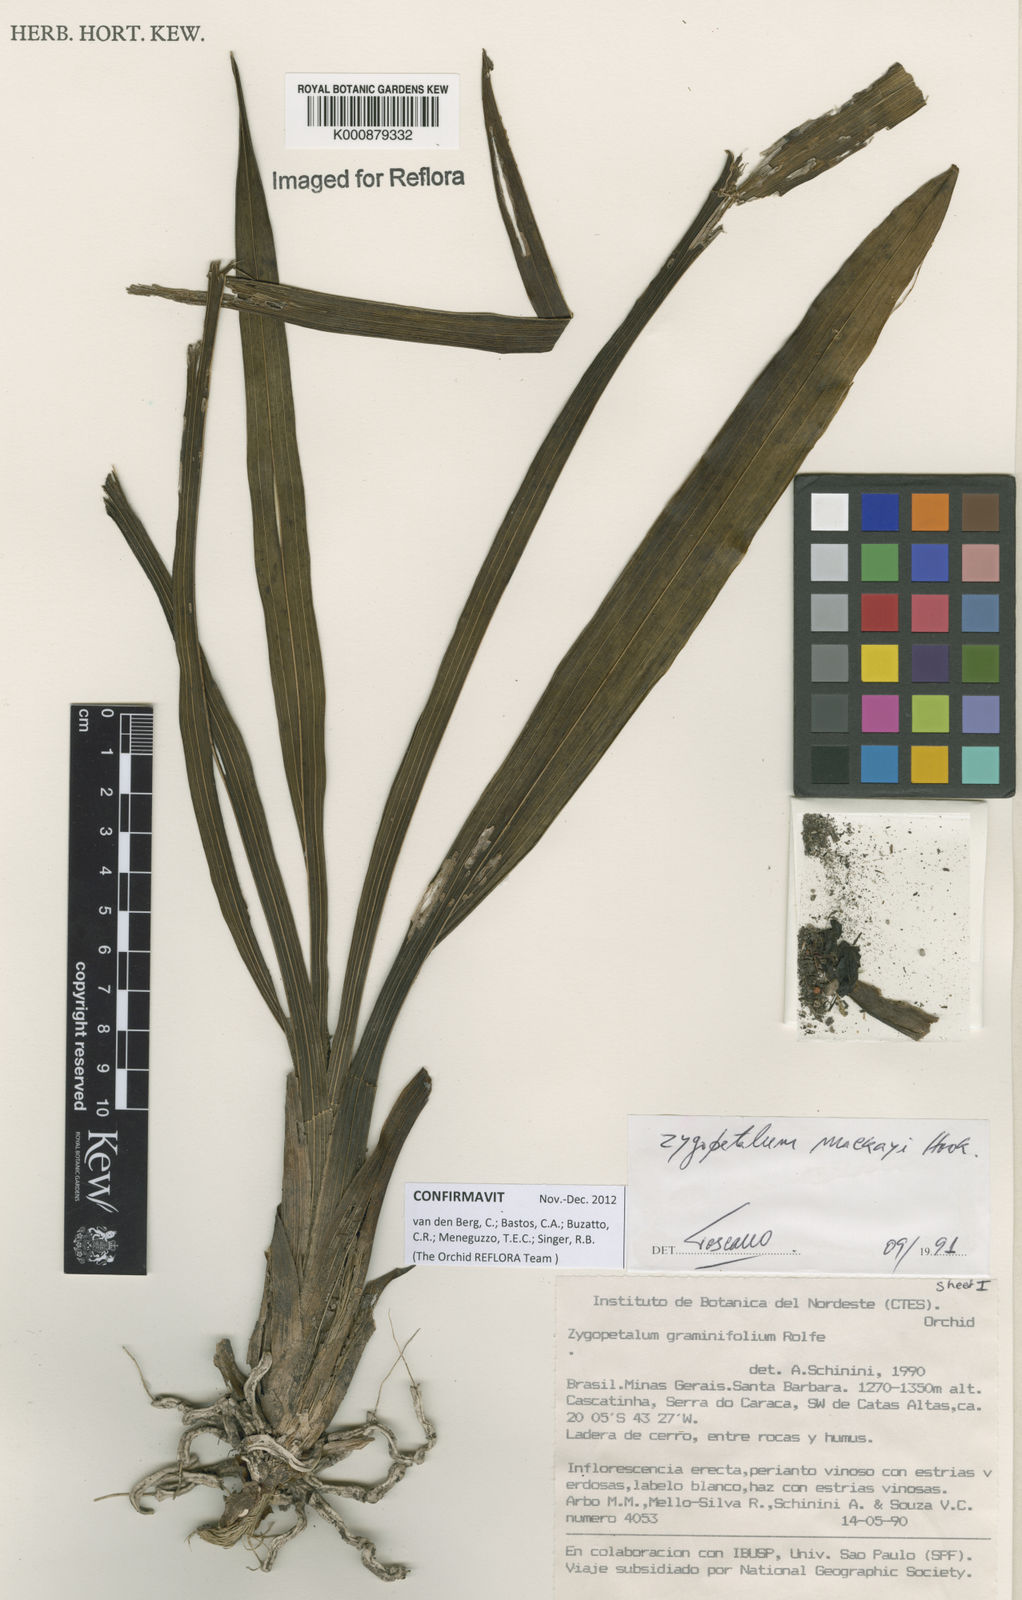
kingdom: Plantae
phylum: Tracheophyta
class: Liliopsida
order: Asparagales
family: Orchidaceae
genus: Zygopetalum
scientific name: Zygopetalum maculatum
